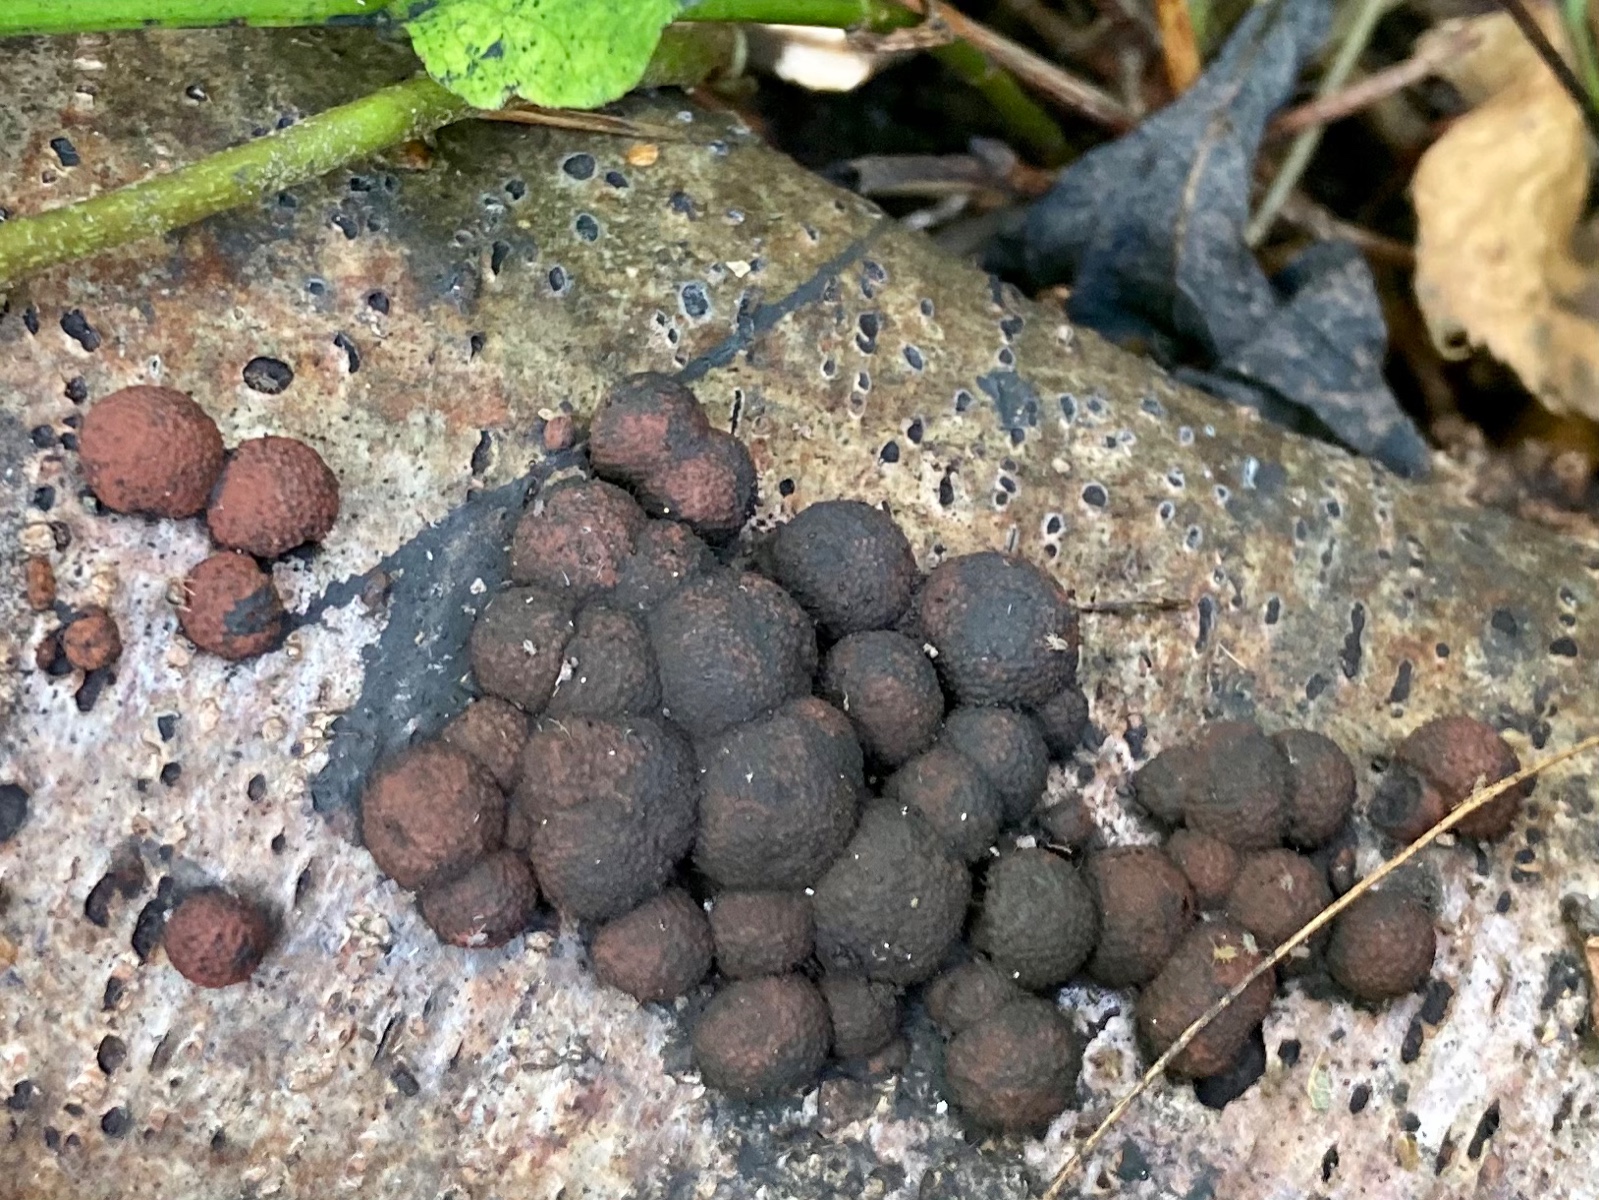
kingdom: Fungi
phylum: Ascomycota
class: Sordariomycetes
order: Xylariales
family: Hypoxylaceae
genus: Hypoxylon
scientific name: Hypoxylon howeanum
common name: halvkugleformet kulbær
